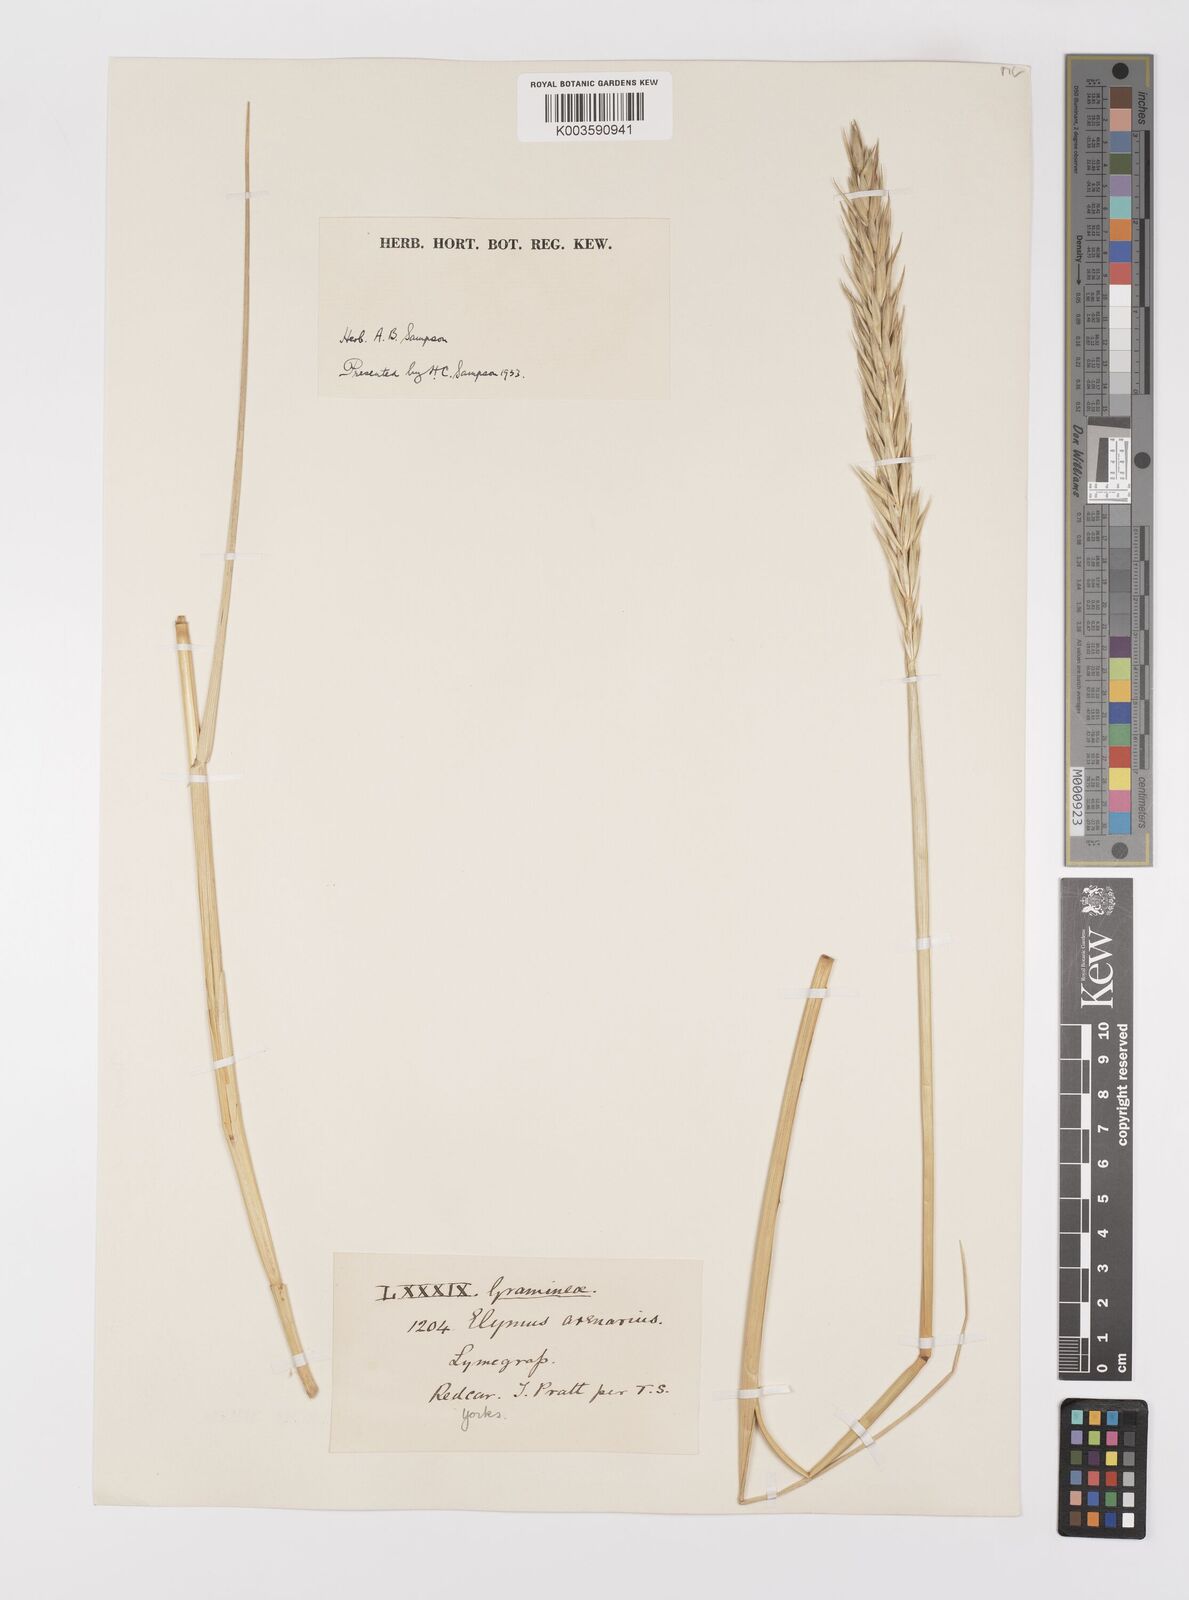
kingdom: Plantae
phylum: Tracheophyta
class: Liliopsida
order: Poales
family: Poaceae
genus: Leymus
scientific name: Leymus arenarius
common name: Lyme-grass
